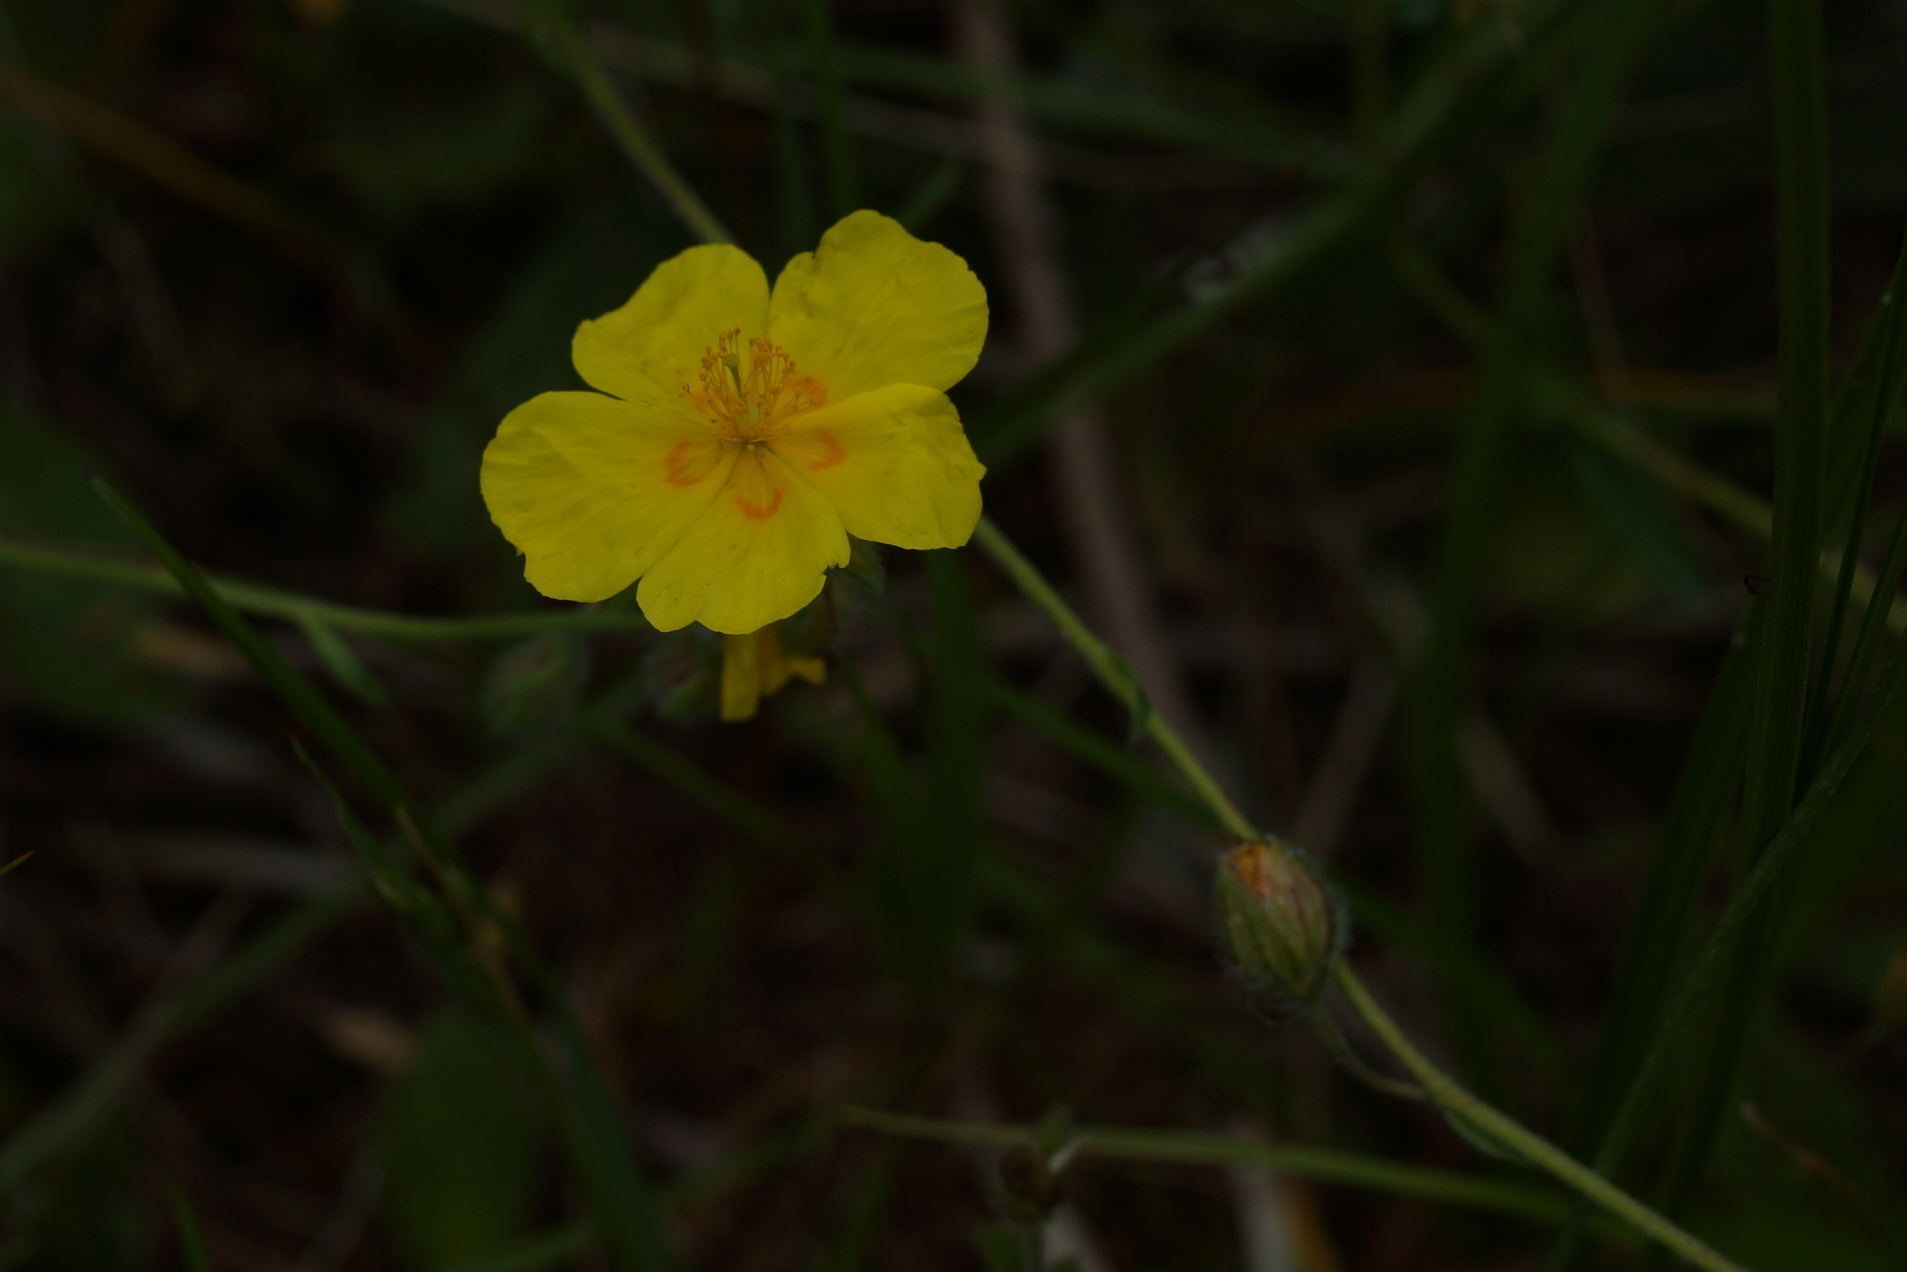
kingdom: Plantae
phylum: Tracheophyta
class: Magnoliopsida
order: Malvales
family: Cistaceae
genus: Helianthemum
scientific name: Helianthemum nummularium
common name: Bakke-soløje
